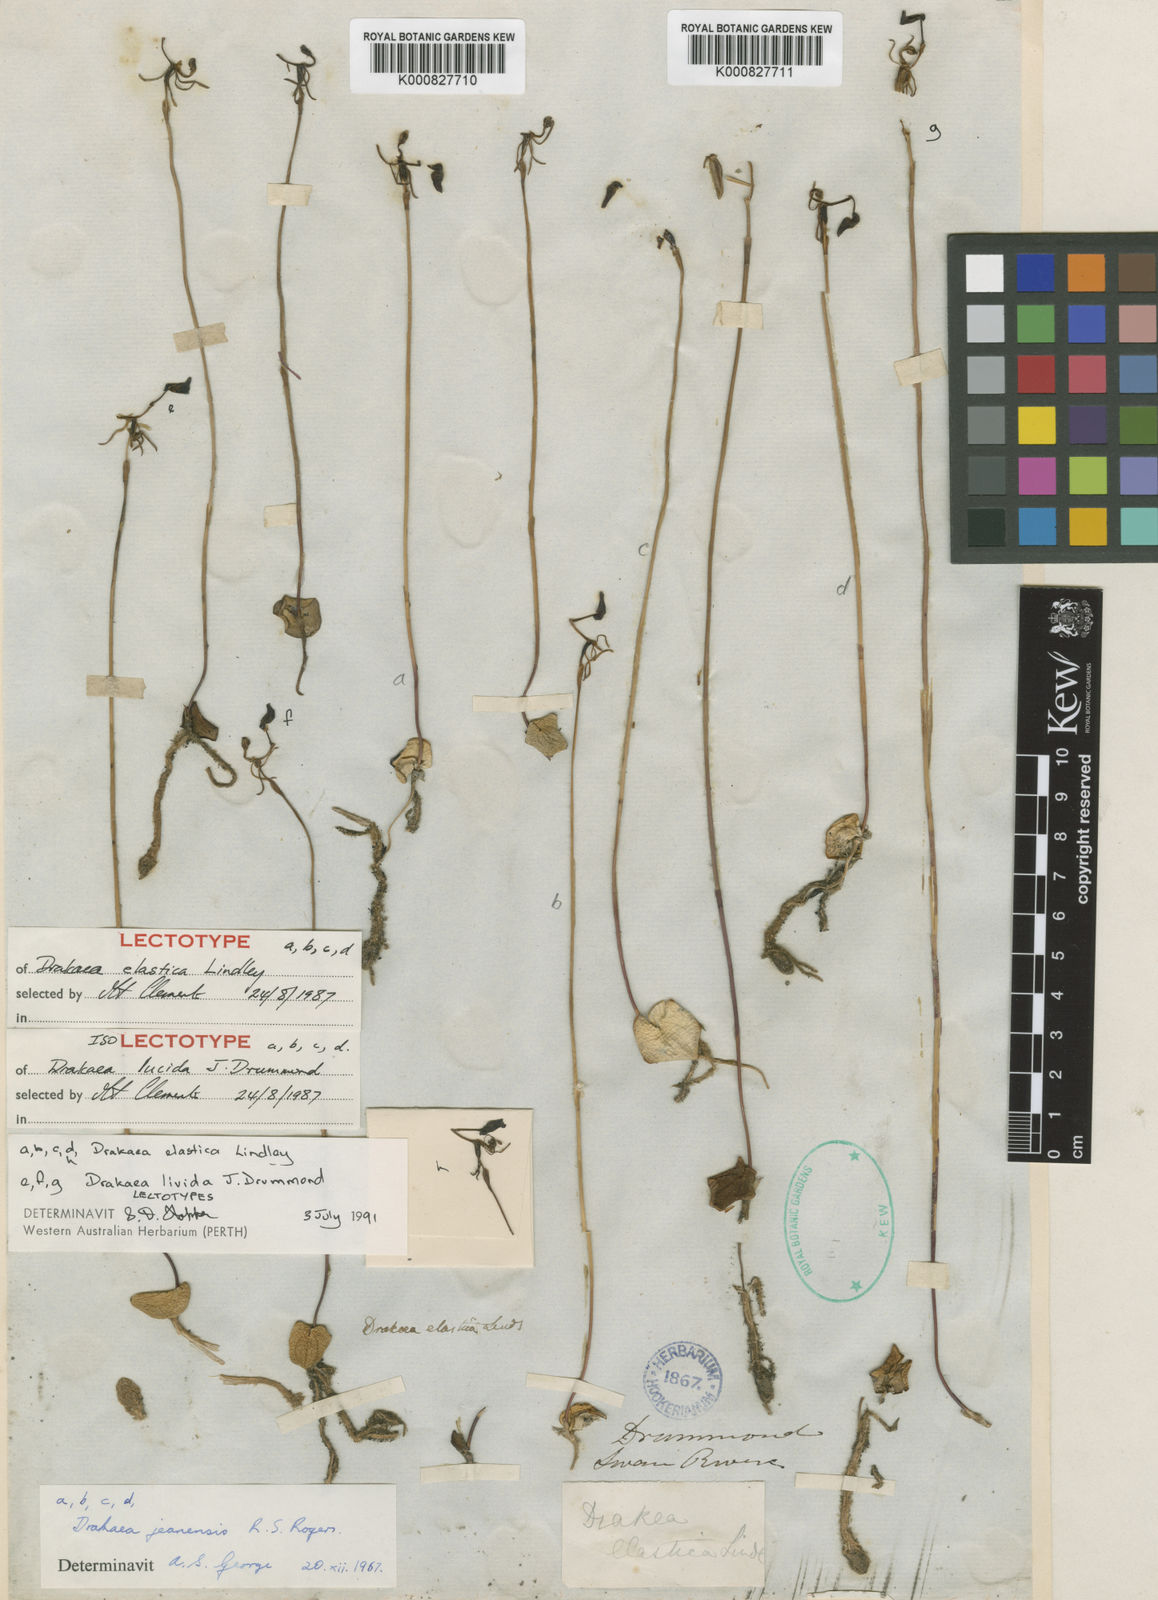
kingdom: Plantae
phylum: Tracheophyta
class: Liliopsida
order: Asparagales
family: Orchidaceae
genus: Drakaea
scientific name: Drakaea elastica
